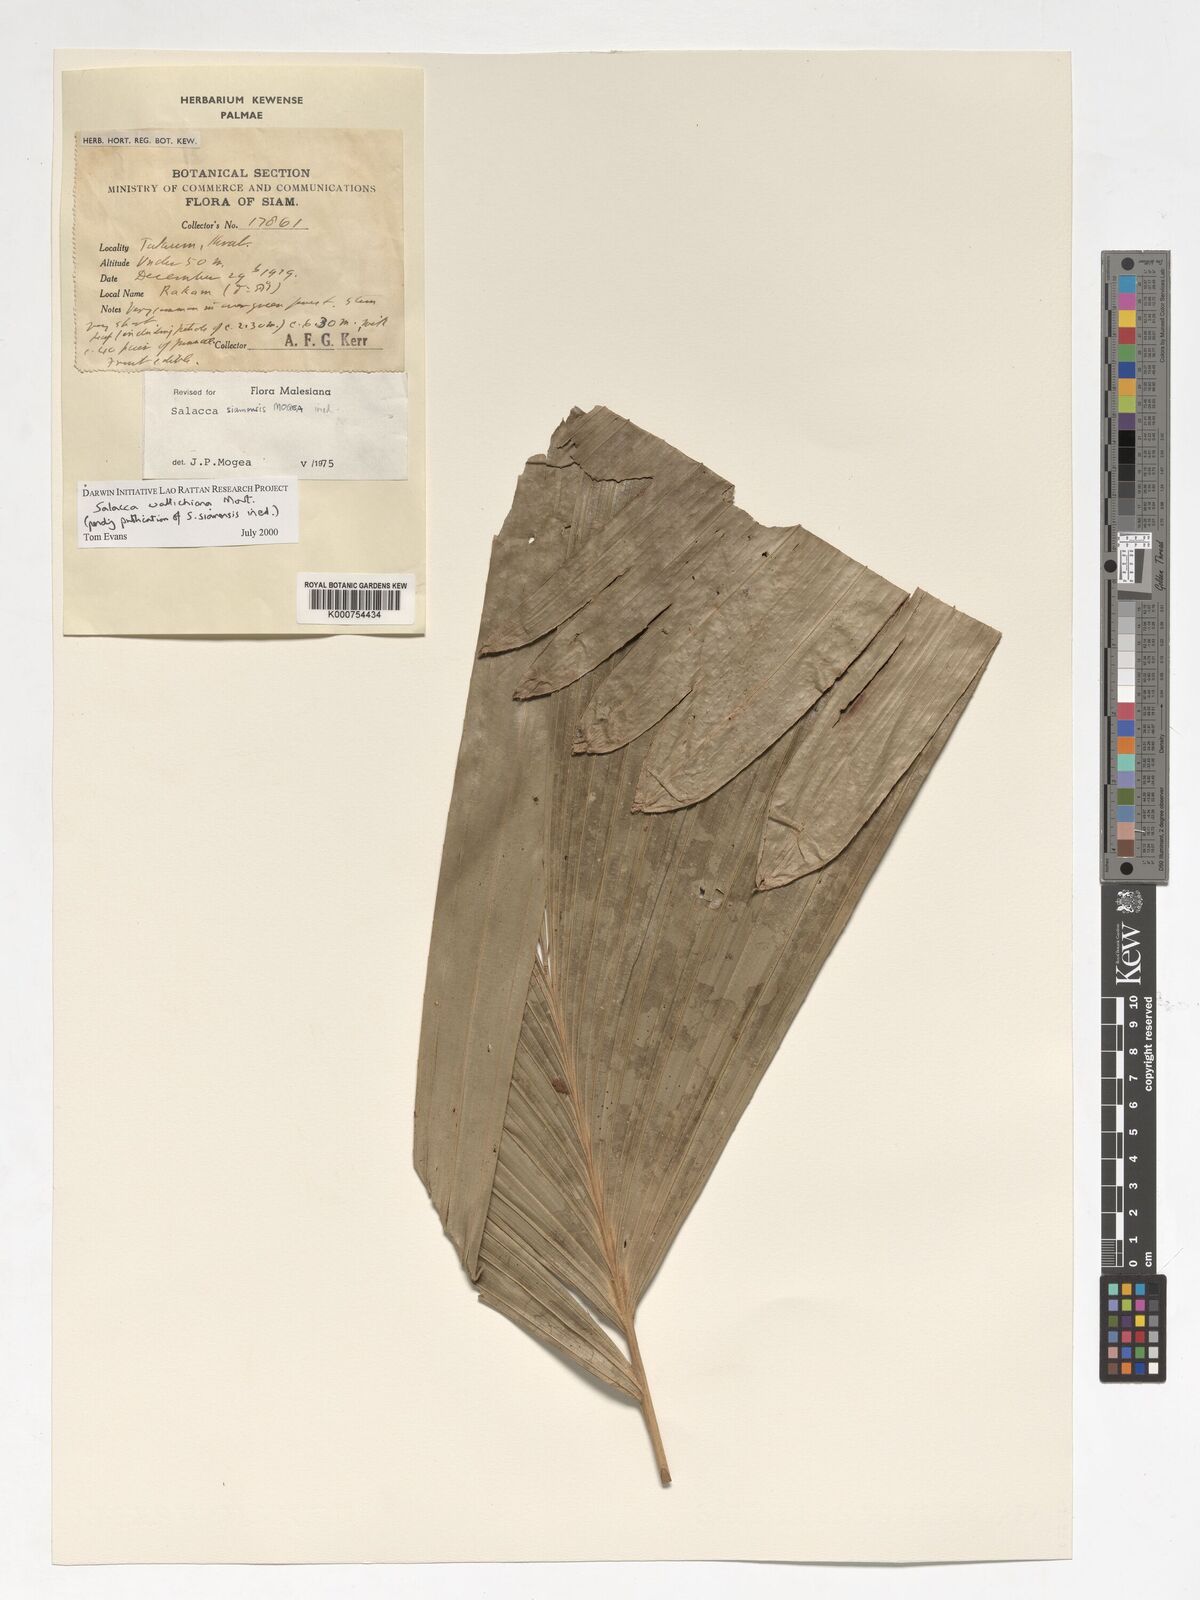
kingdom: Plantae
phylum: Tracheophyta
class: Liliopsida
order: Arecales
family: Arecaceae
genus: Salacca
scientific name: Salacca wallichiana
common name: Rakum palm
